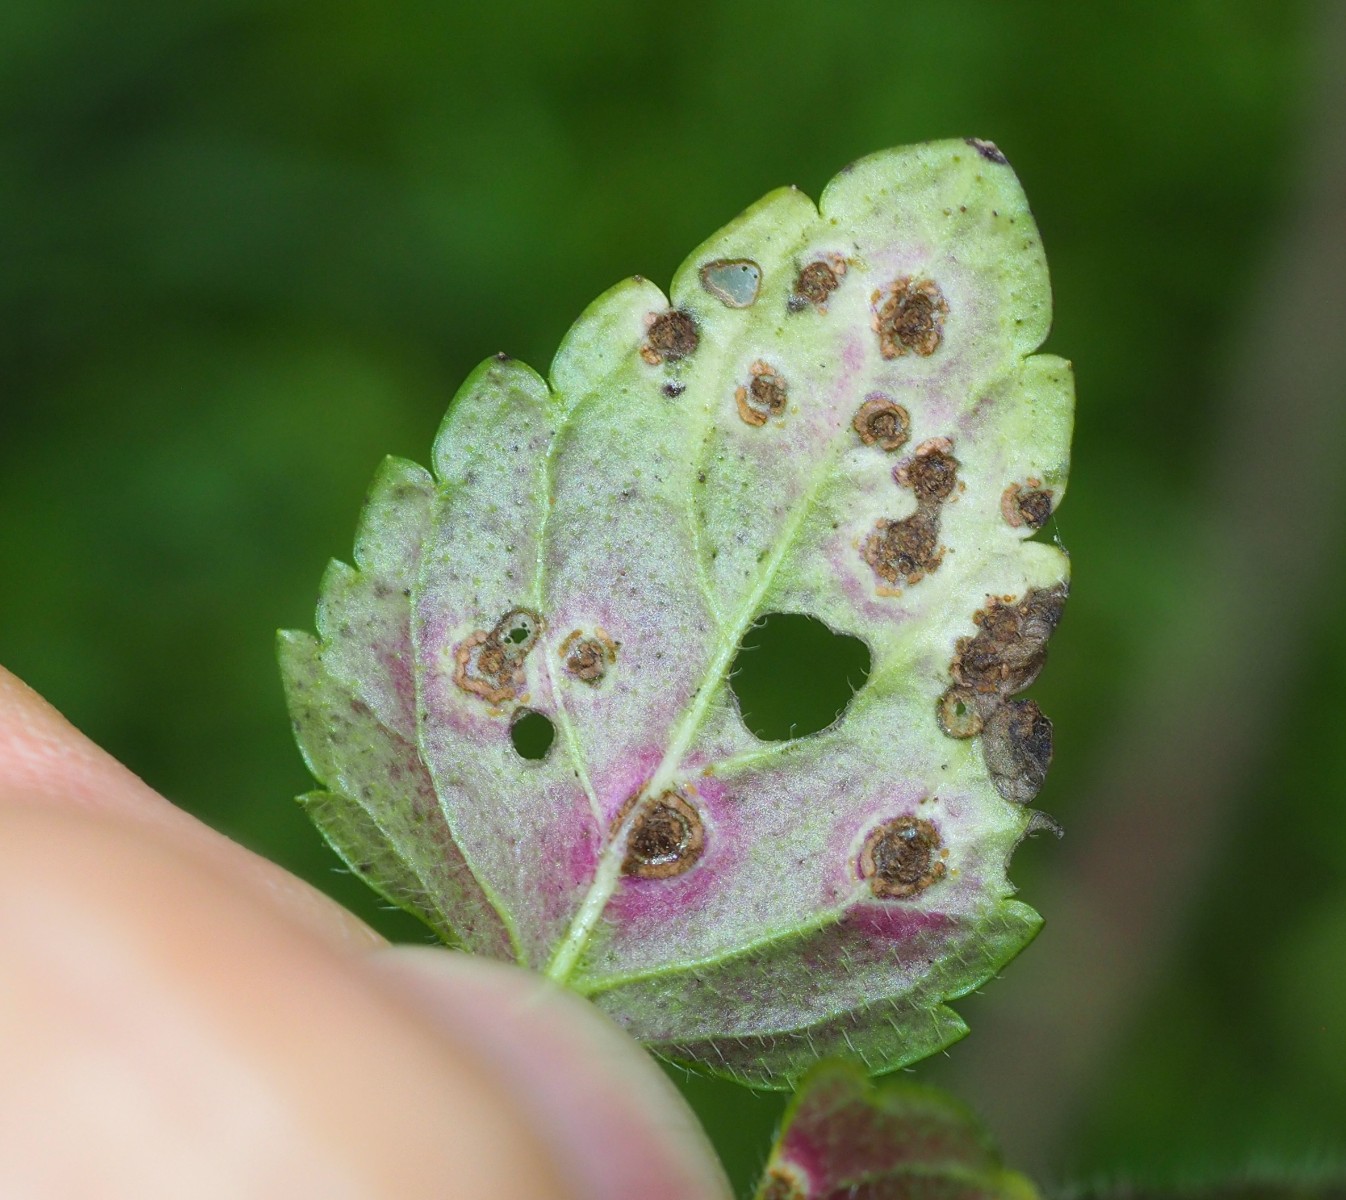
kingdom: Fungi
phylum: Basidiomycota
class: Pucciniomycetes
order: Pucciniales
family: Pucciniaceae
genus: Puccinia
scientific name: Puccinia glechomatis
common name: Ground ivy rust
